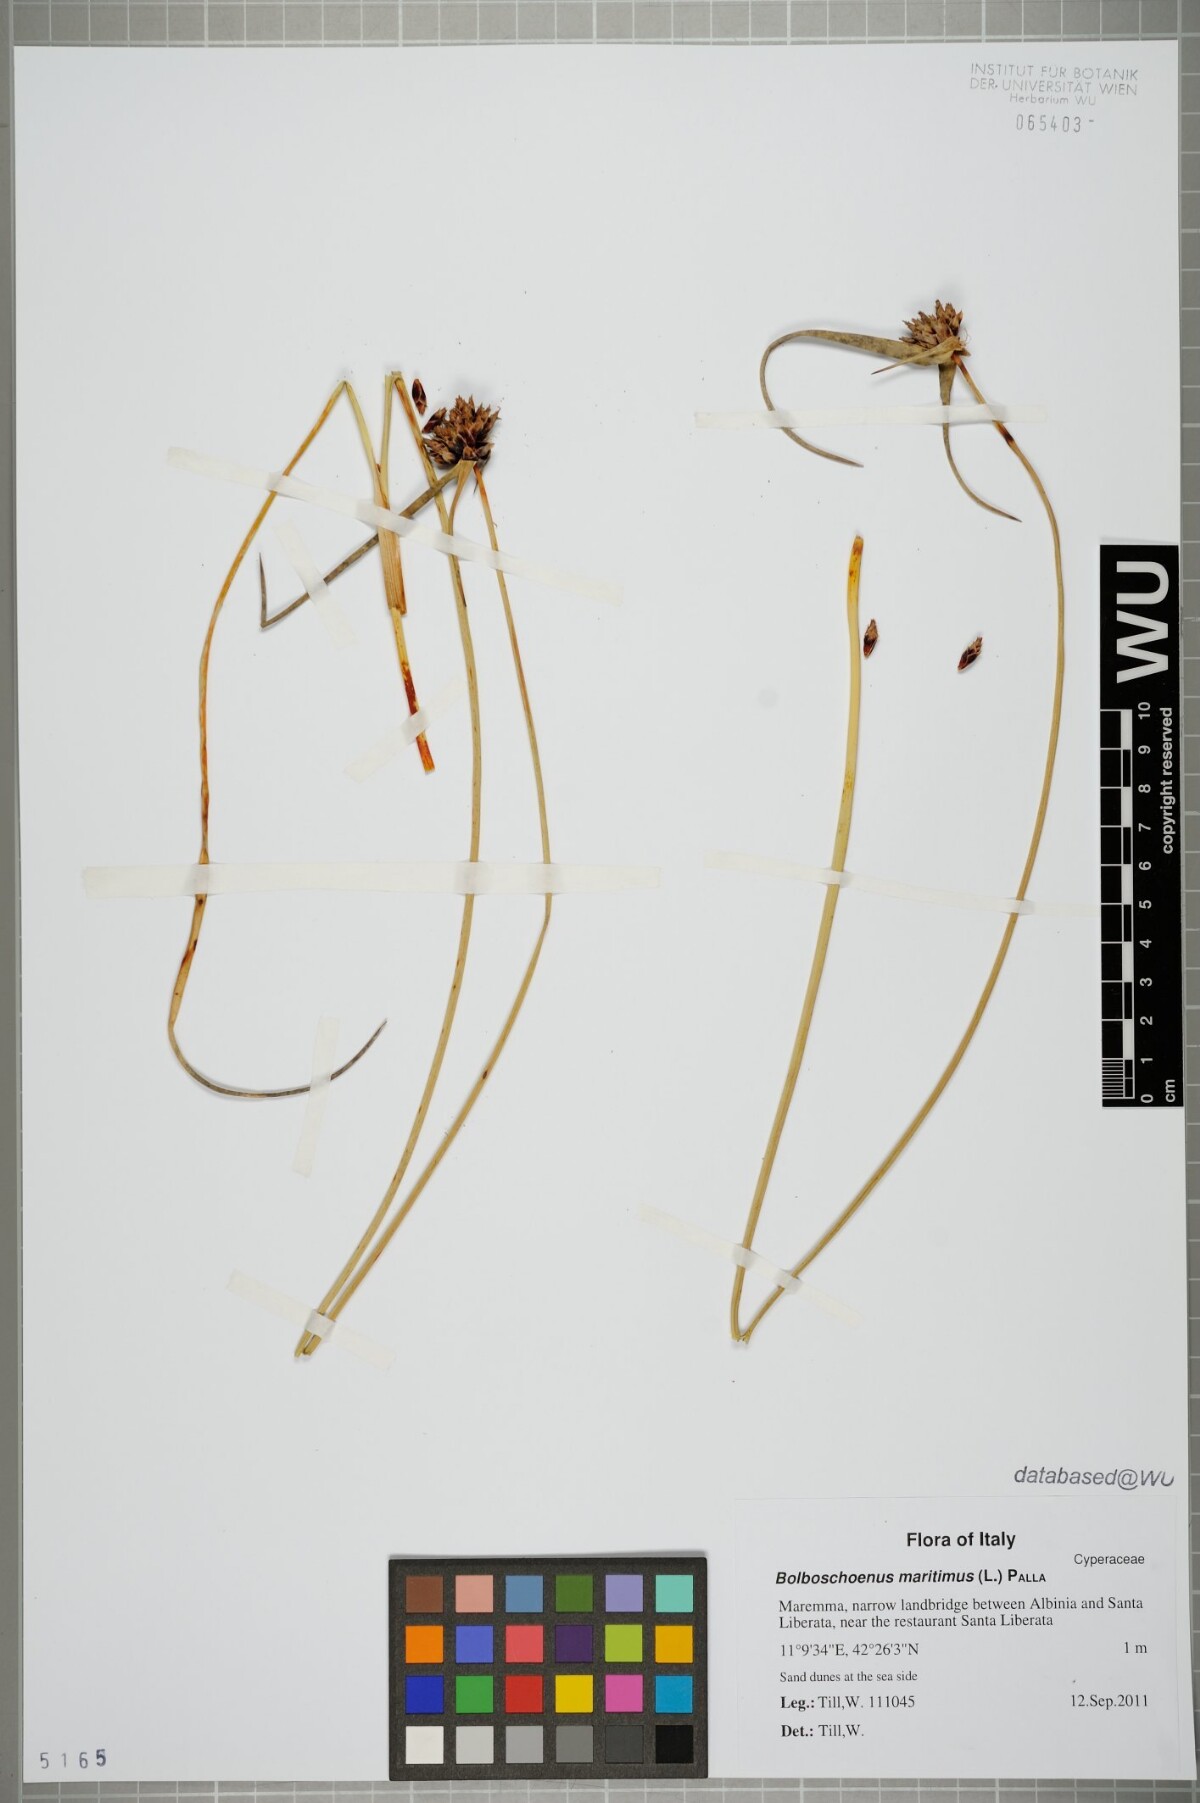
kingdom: Plantae
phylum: Tracheophyta
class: Liliopsida
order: Poales
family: Cyperaceae
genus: Bolboschoenus
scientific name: Bolboschoenus maritimus
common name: Sea club-rush
